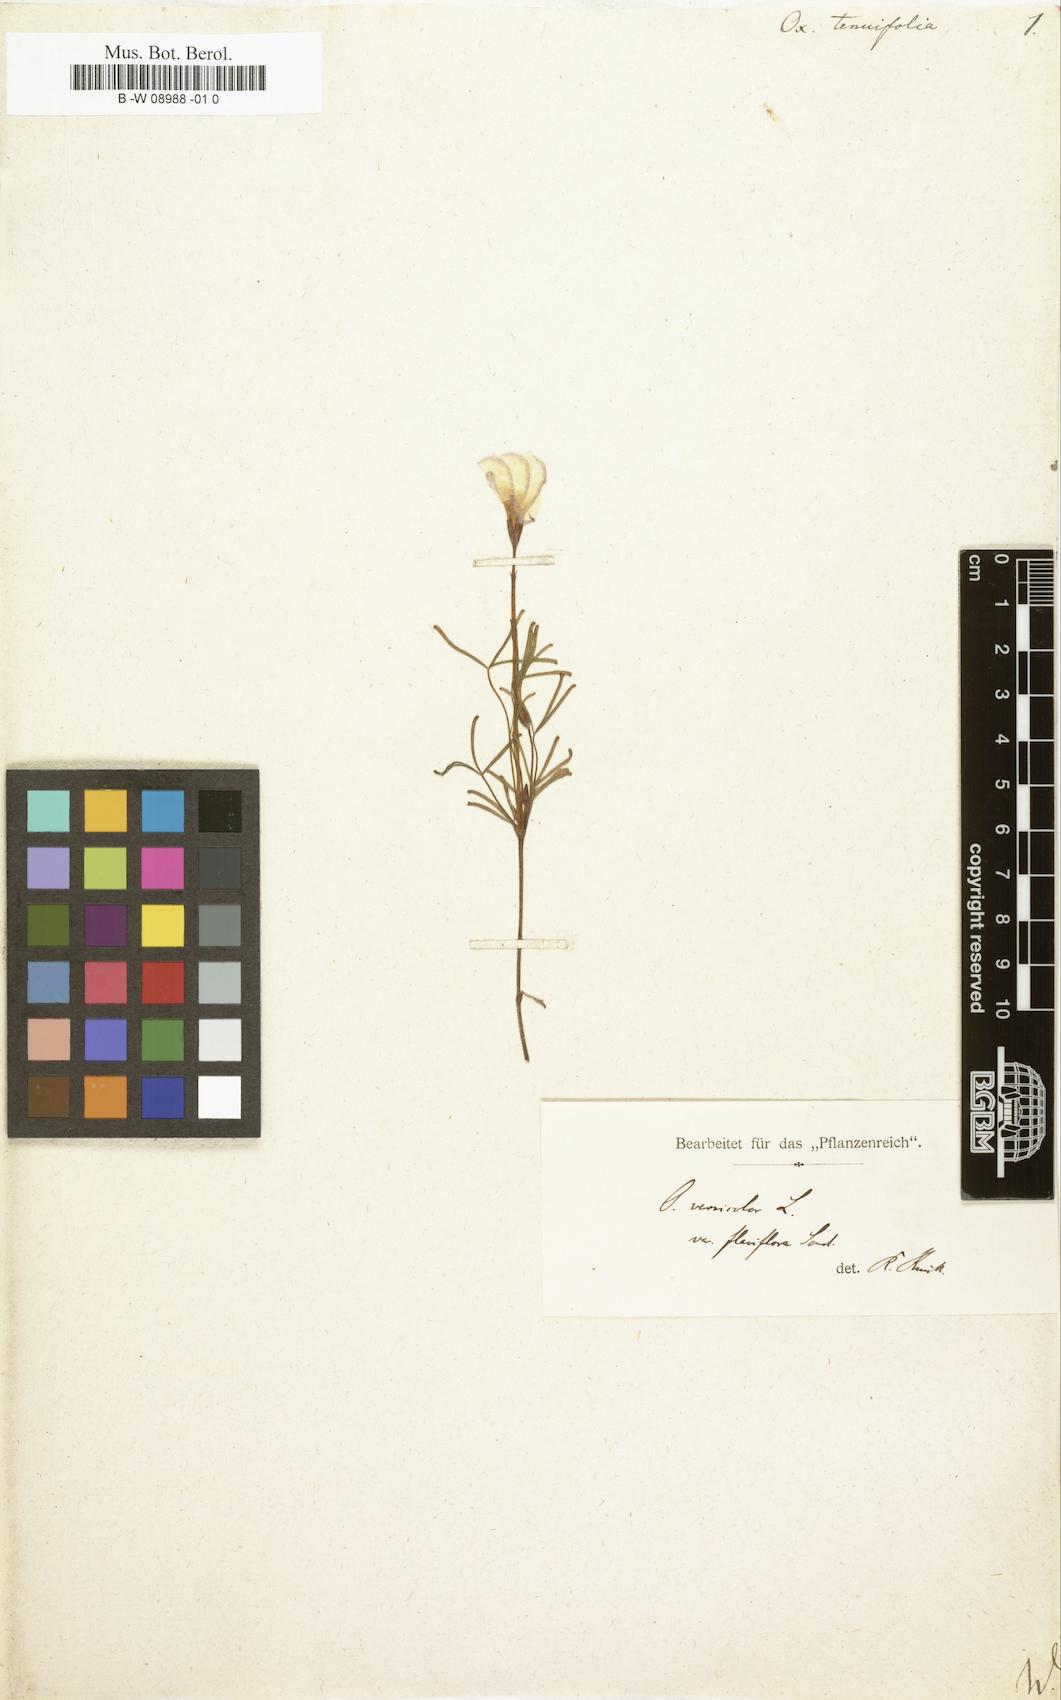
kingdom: Plantae
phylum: Tracheophyta
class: Magnoliopsida
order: Oxalidales
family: Oxalidaceae
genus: Oxalis
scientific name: Oxalis tenuifolia
